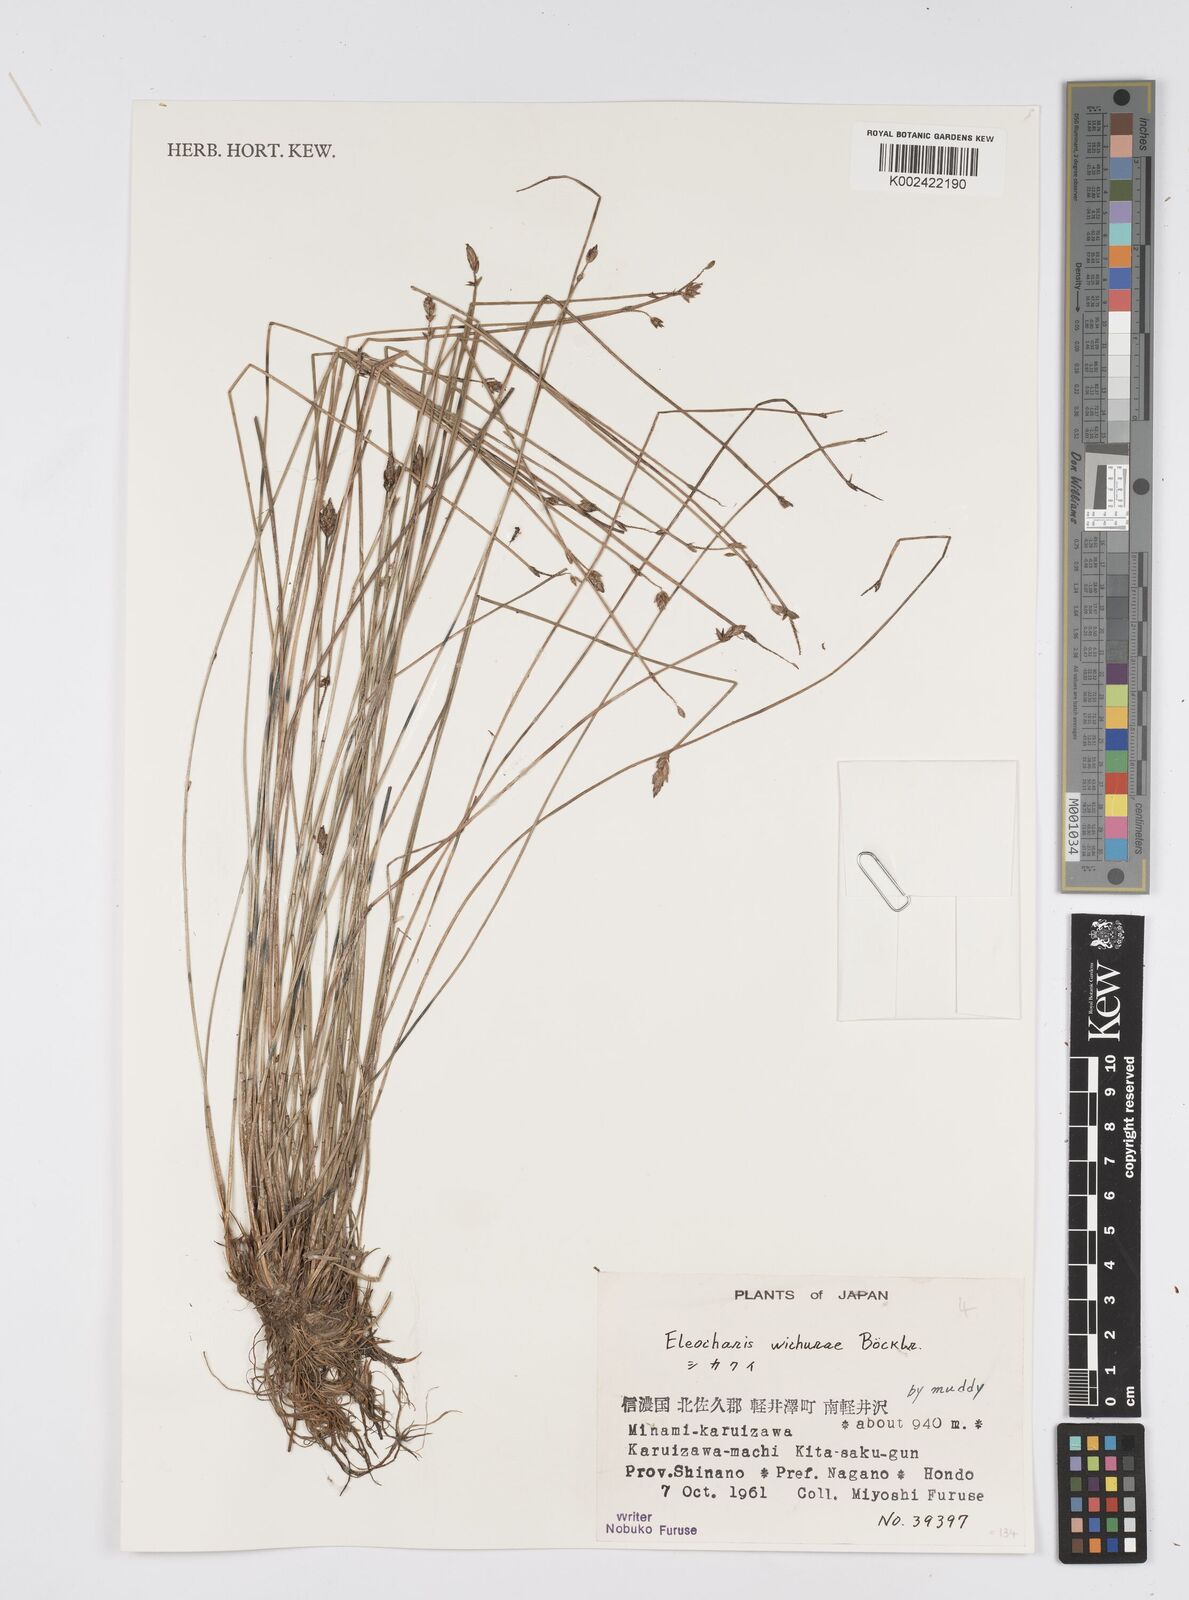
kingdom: Plantae
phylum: Tracheophyta
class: Liliopsida
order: Poales
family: Cyperaceae
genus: Eleocharis
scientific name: Eleocharis tetraquetra
